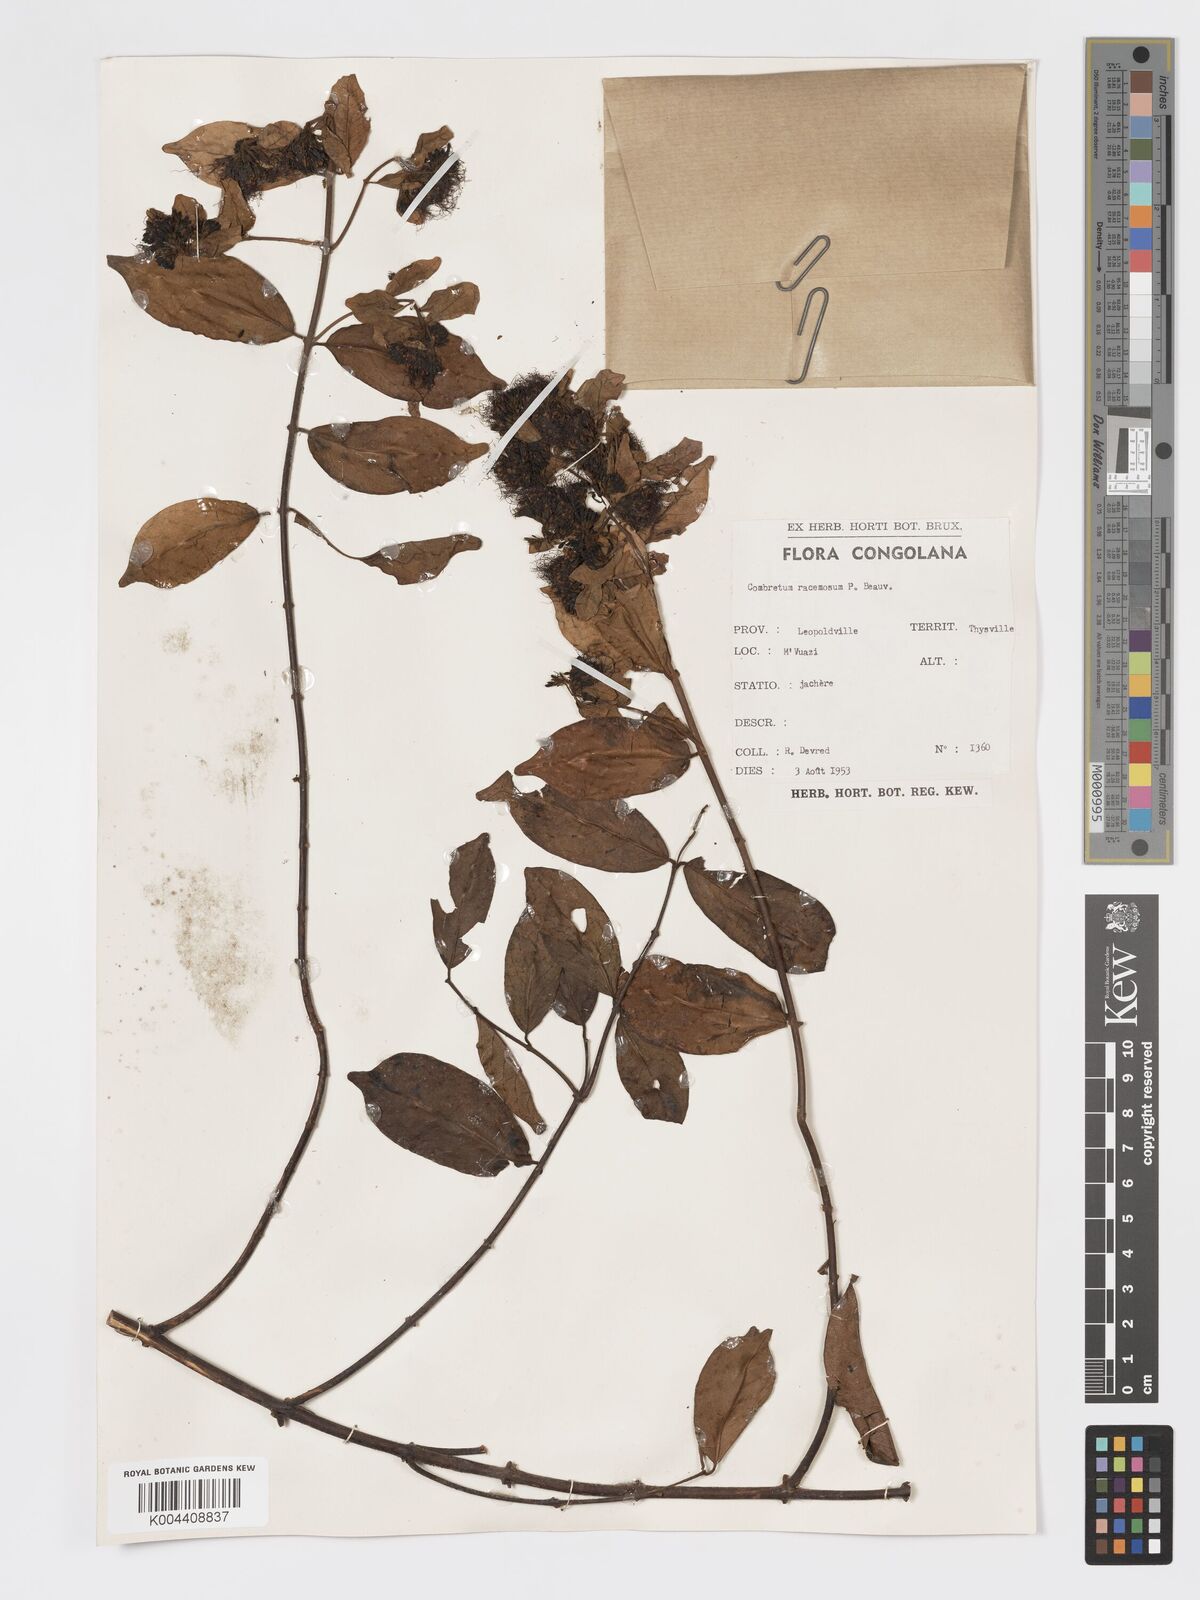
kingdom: Plantae
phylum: Tracheophyta
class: Magnoliopsida
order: Myrtales
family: Combretaceae
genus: Combretum
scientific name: Combretum racemosum
